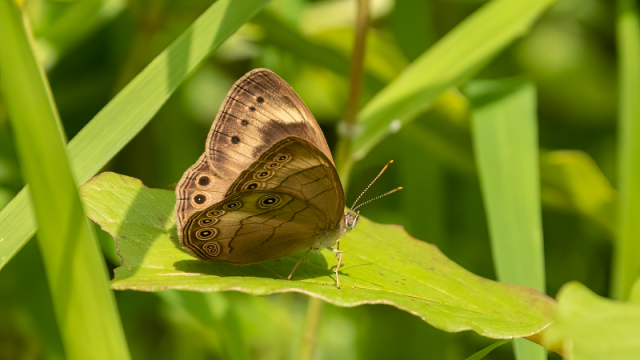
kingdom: Animalia
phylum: Arthropoda
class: Insecta
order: Lepidoptera
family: Nymphalidae
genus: Lethe
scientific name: Lethe eurydice
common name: Appalachian Eyed Brown
